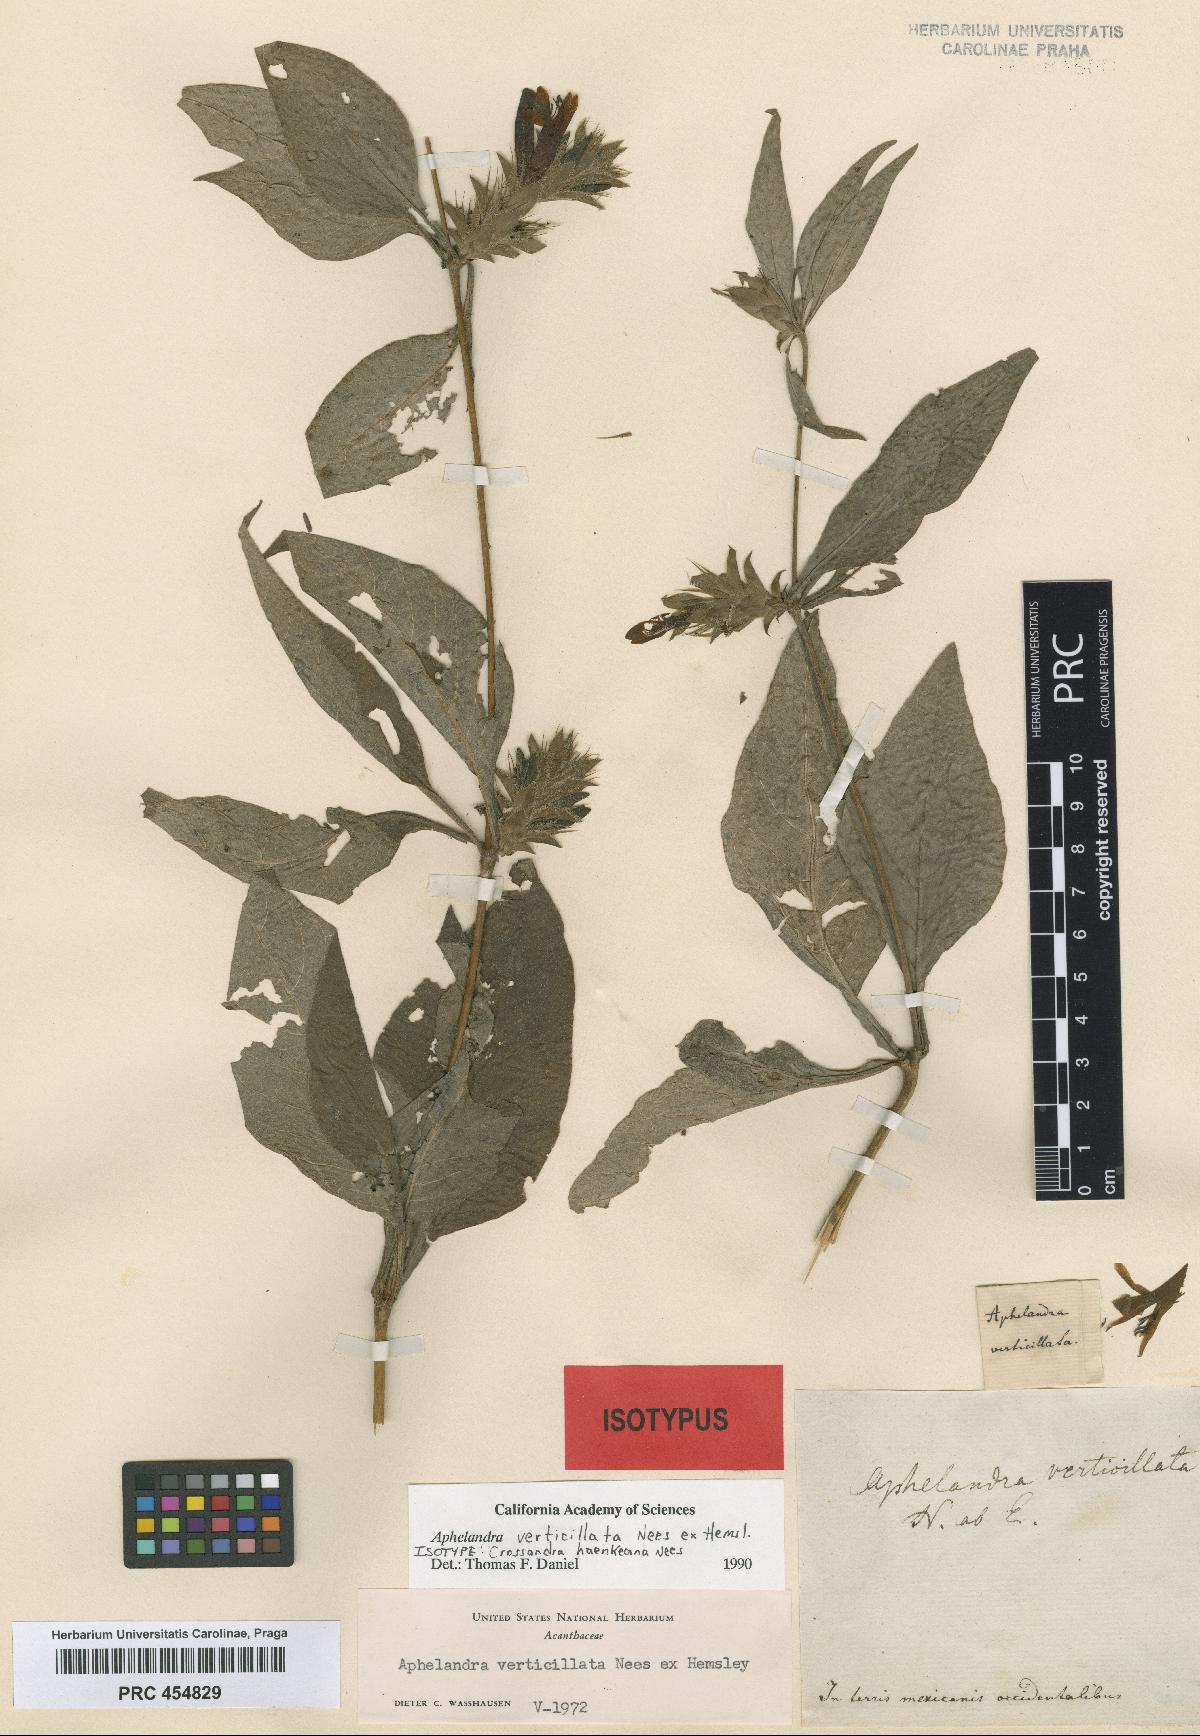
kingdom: Plantae
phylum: Tracheophyta
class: Magnoliopsida
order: Lamiales
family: Acanthaceae
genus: Holographis
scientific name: Holographis haenkeana
